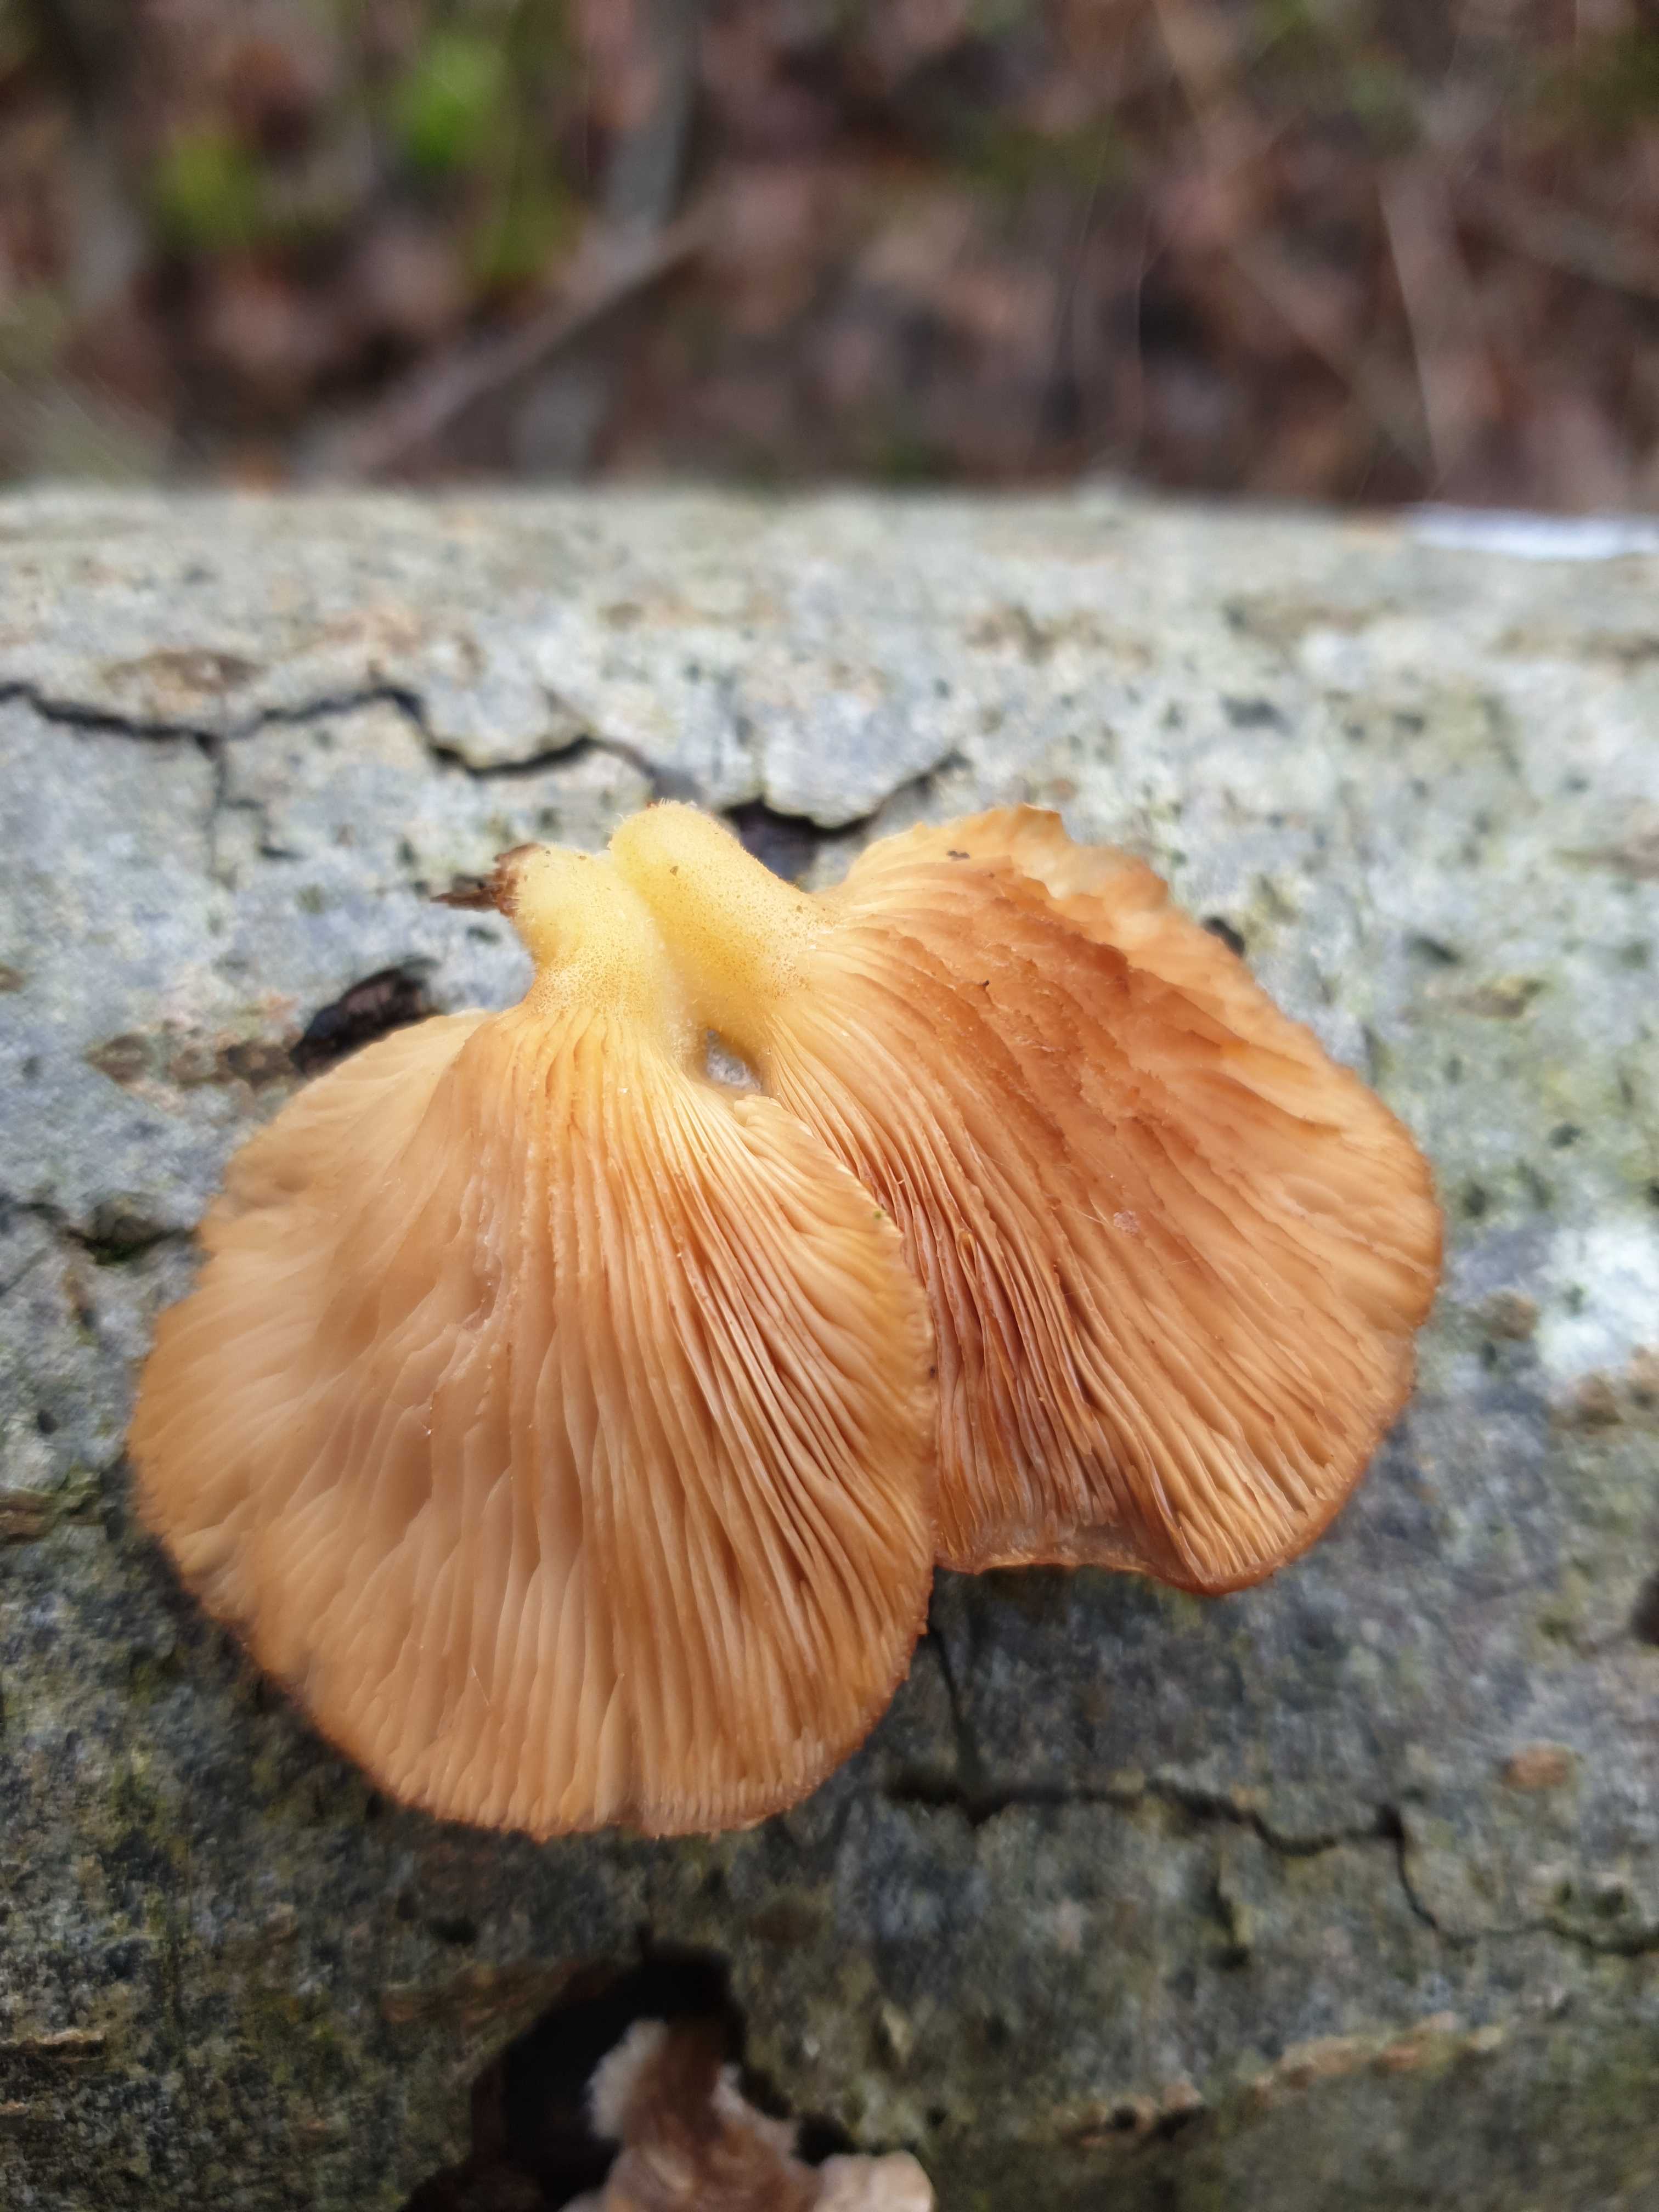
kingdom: Fungi
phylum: Basidiomycota
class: Agaricomycetes
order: Agaricales
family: Sarcomyxaceae
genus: Sarcomyxa
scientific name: Sarcomyxa serotina
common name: gummihat
